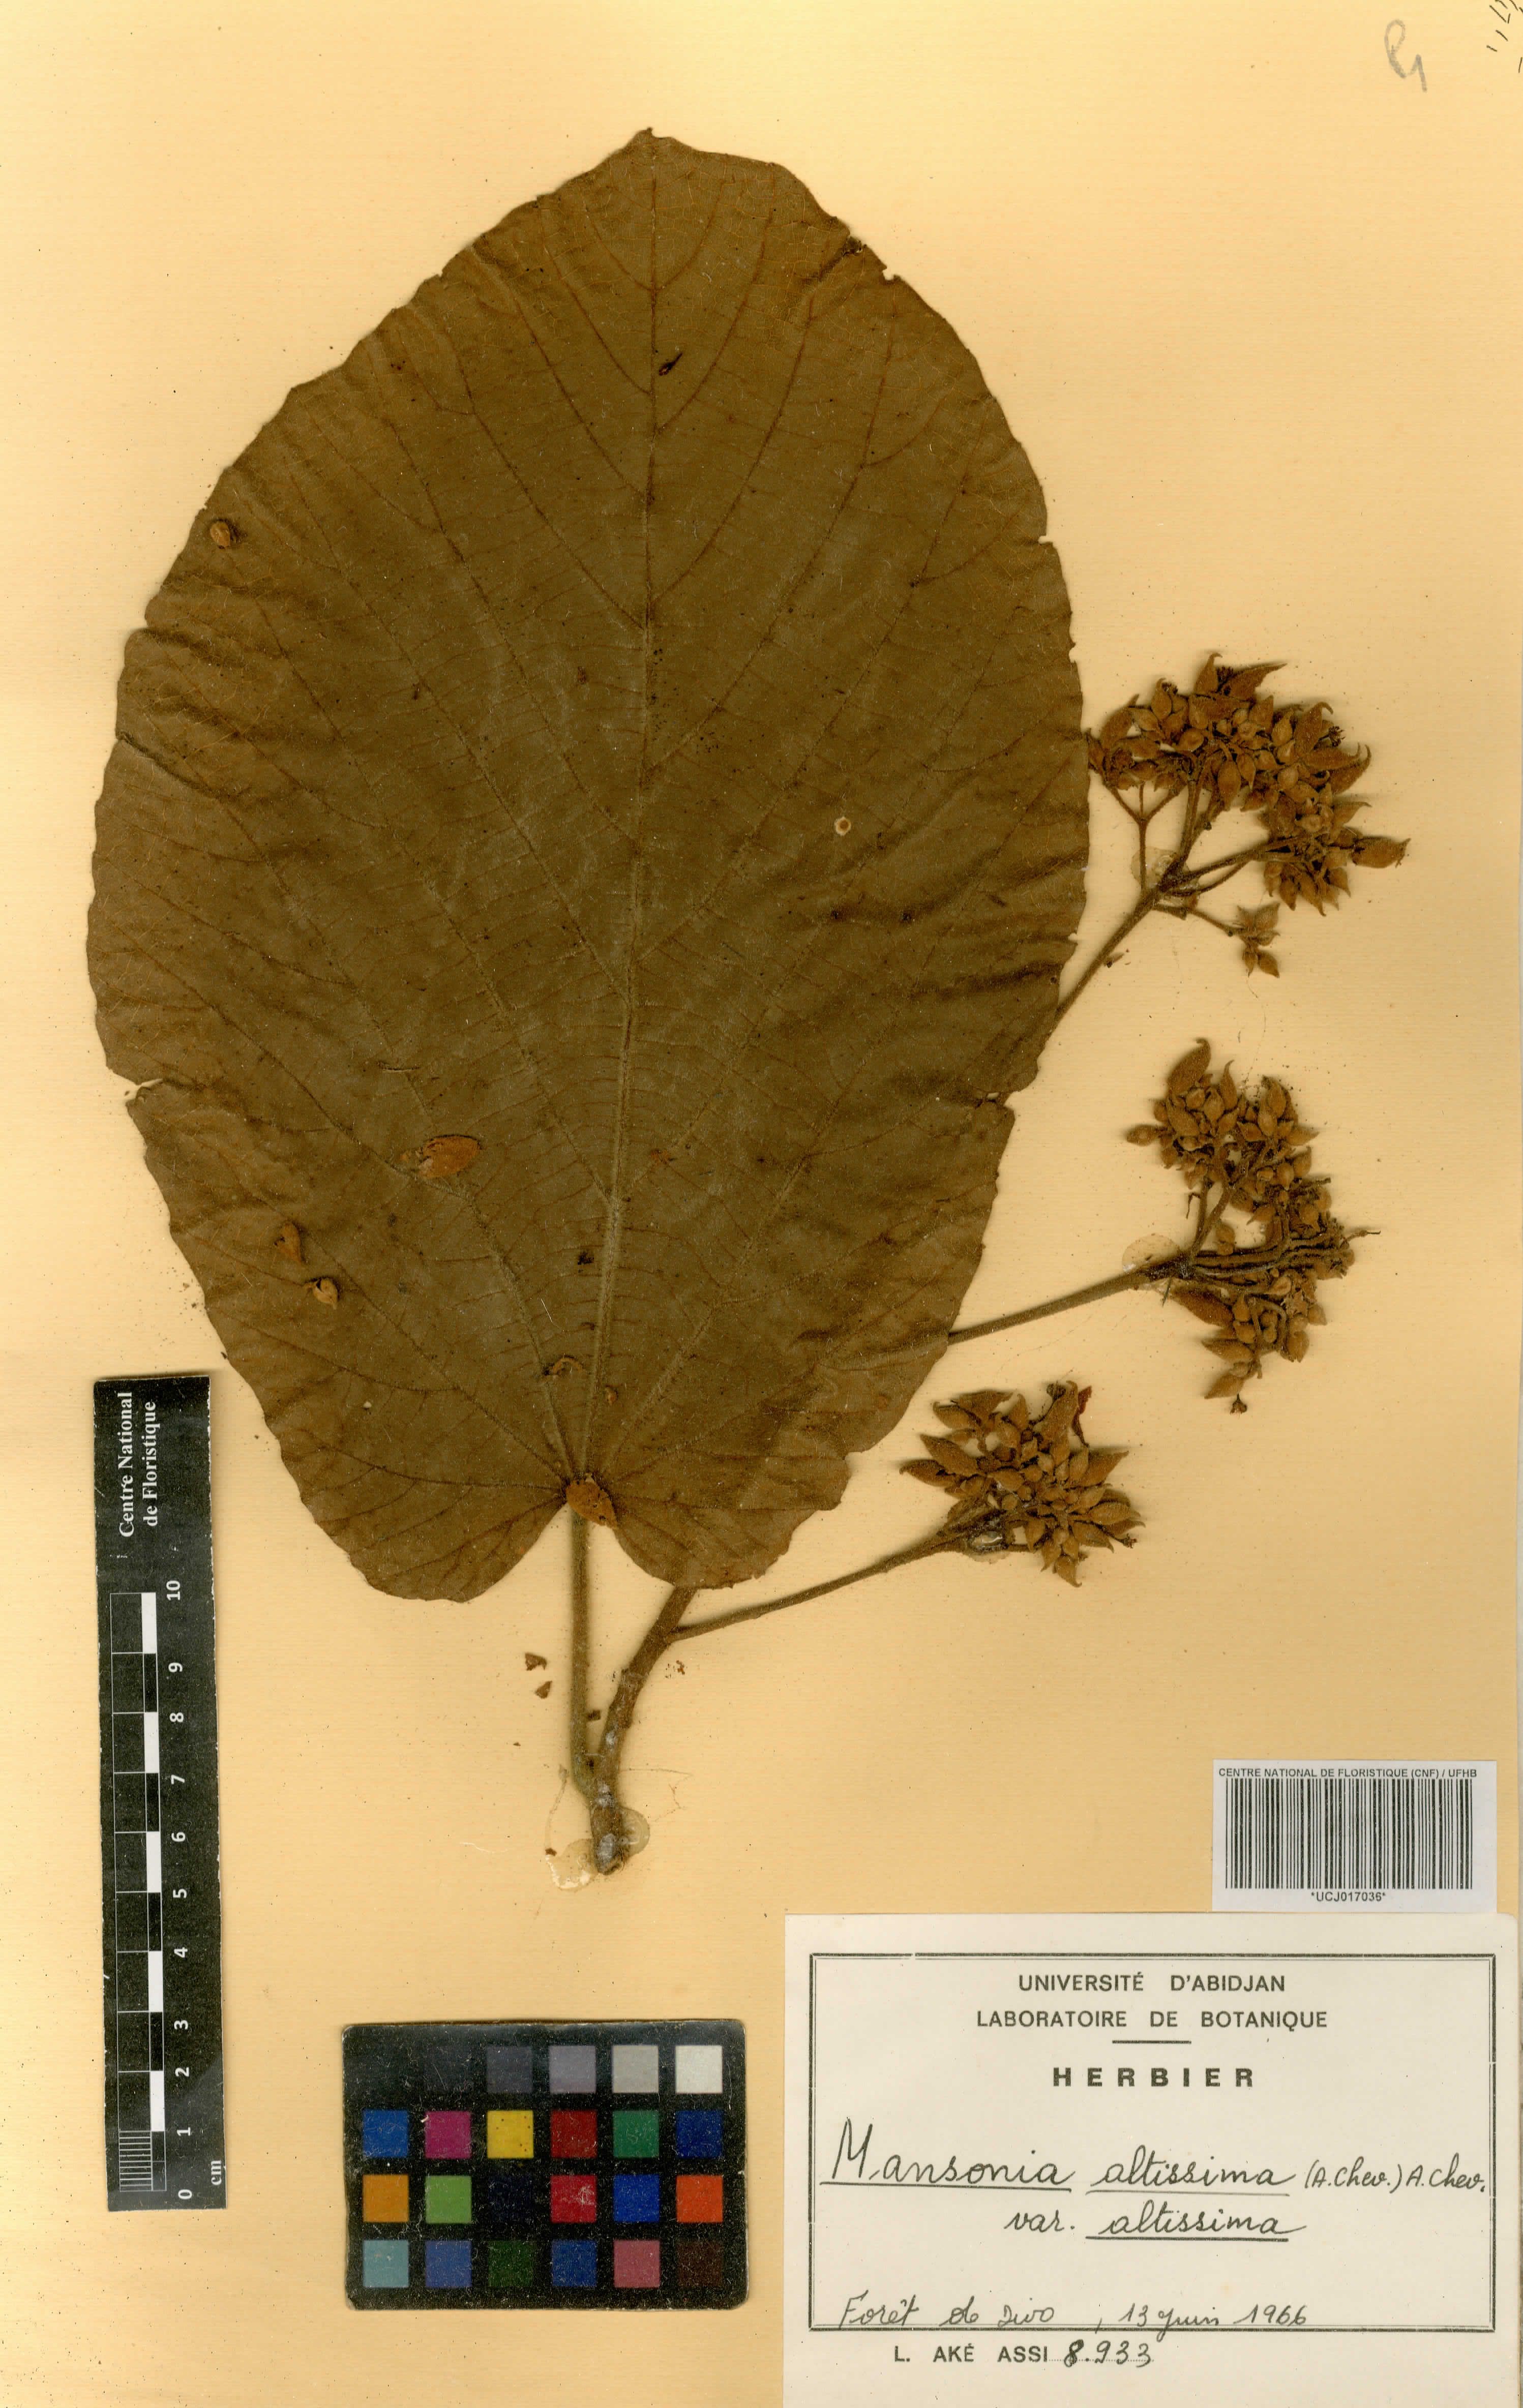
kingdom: Plantae
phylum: Tracheophyta
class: Magnoliopsida
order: Malvales
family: Malvaceae
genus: Mansonia
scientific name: Mansonia altissima
